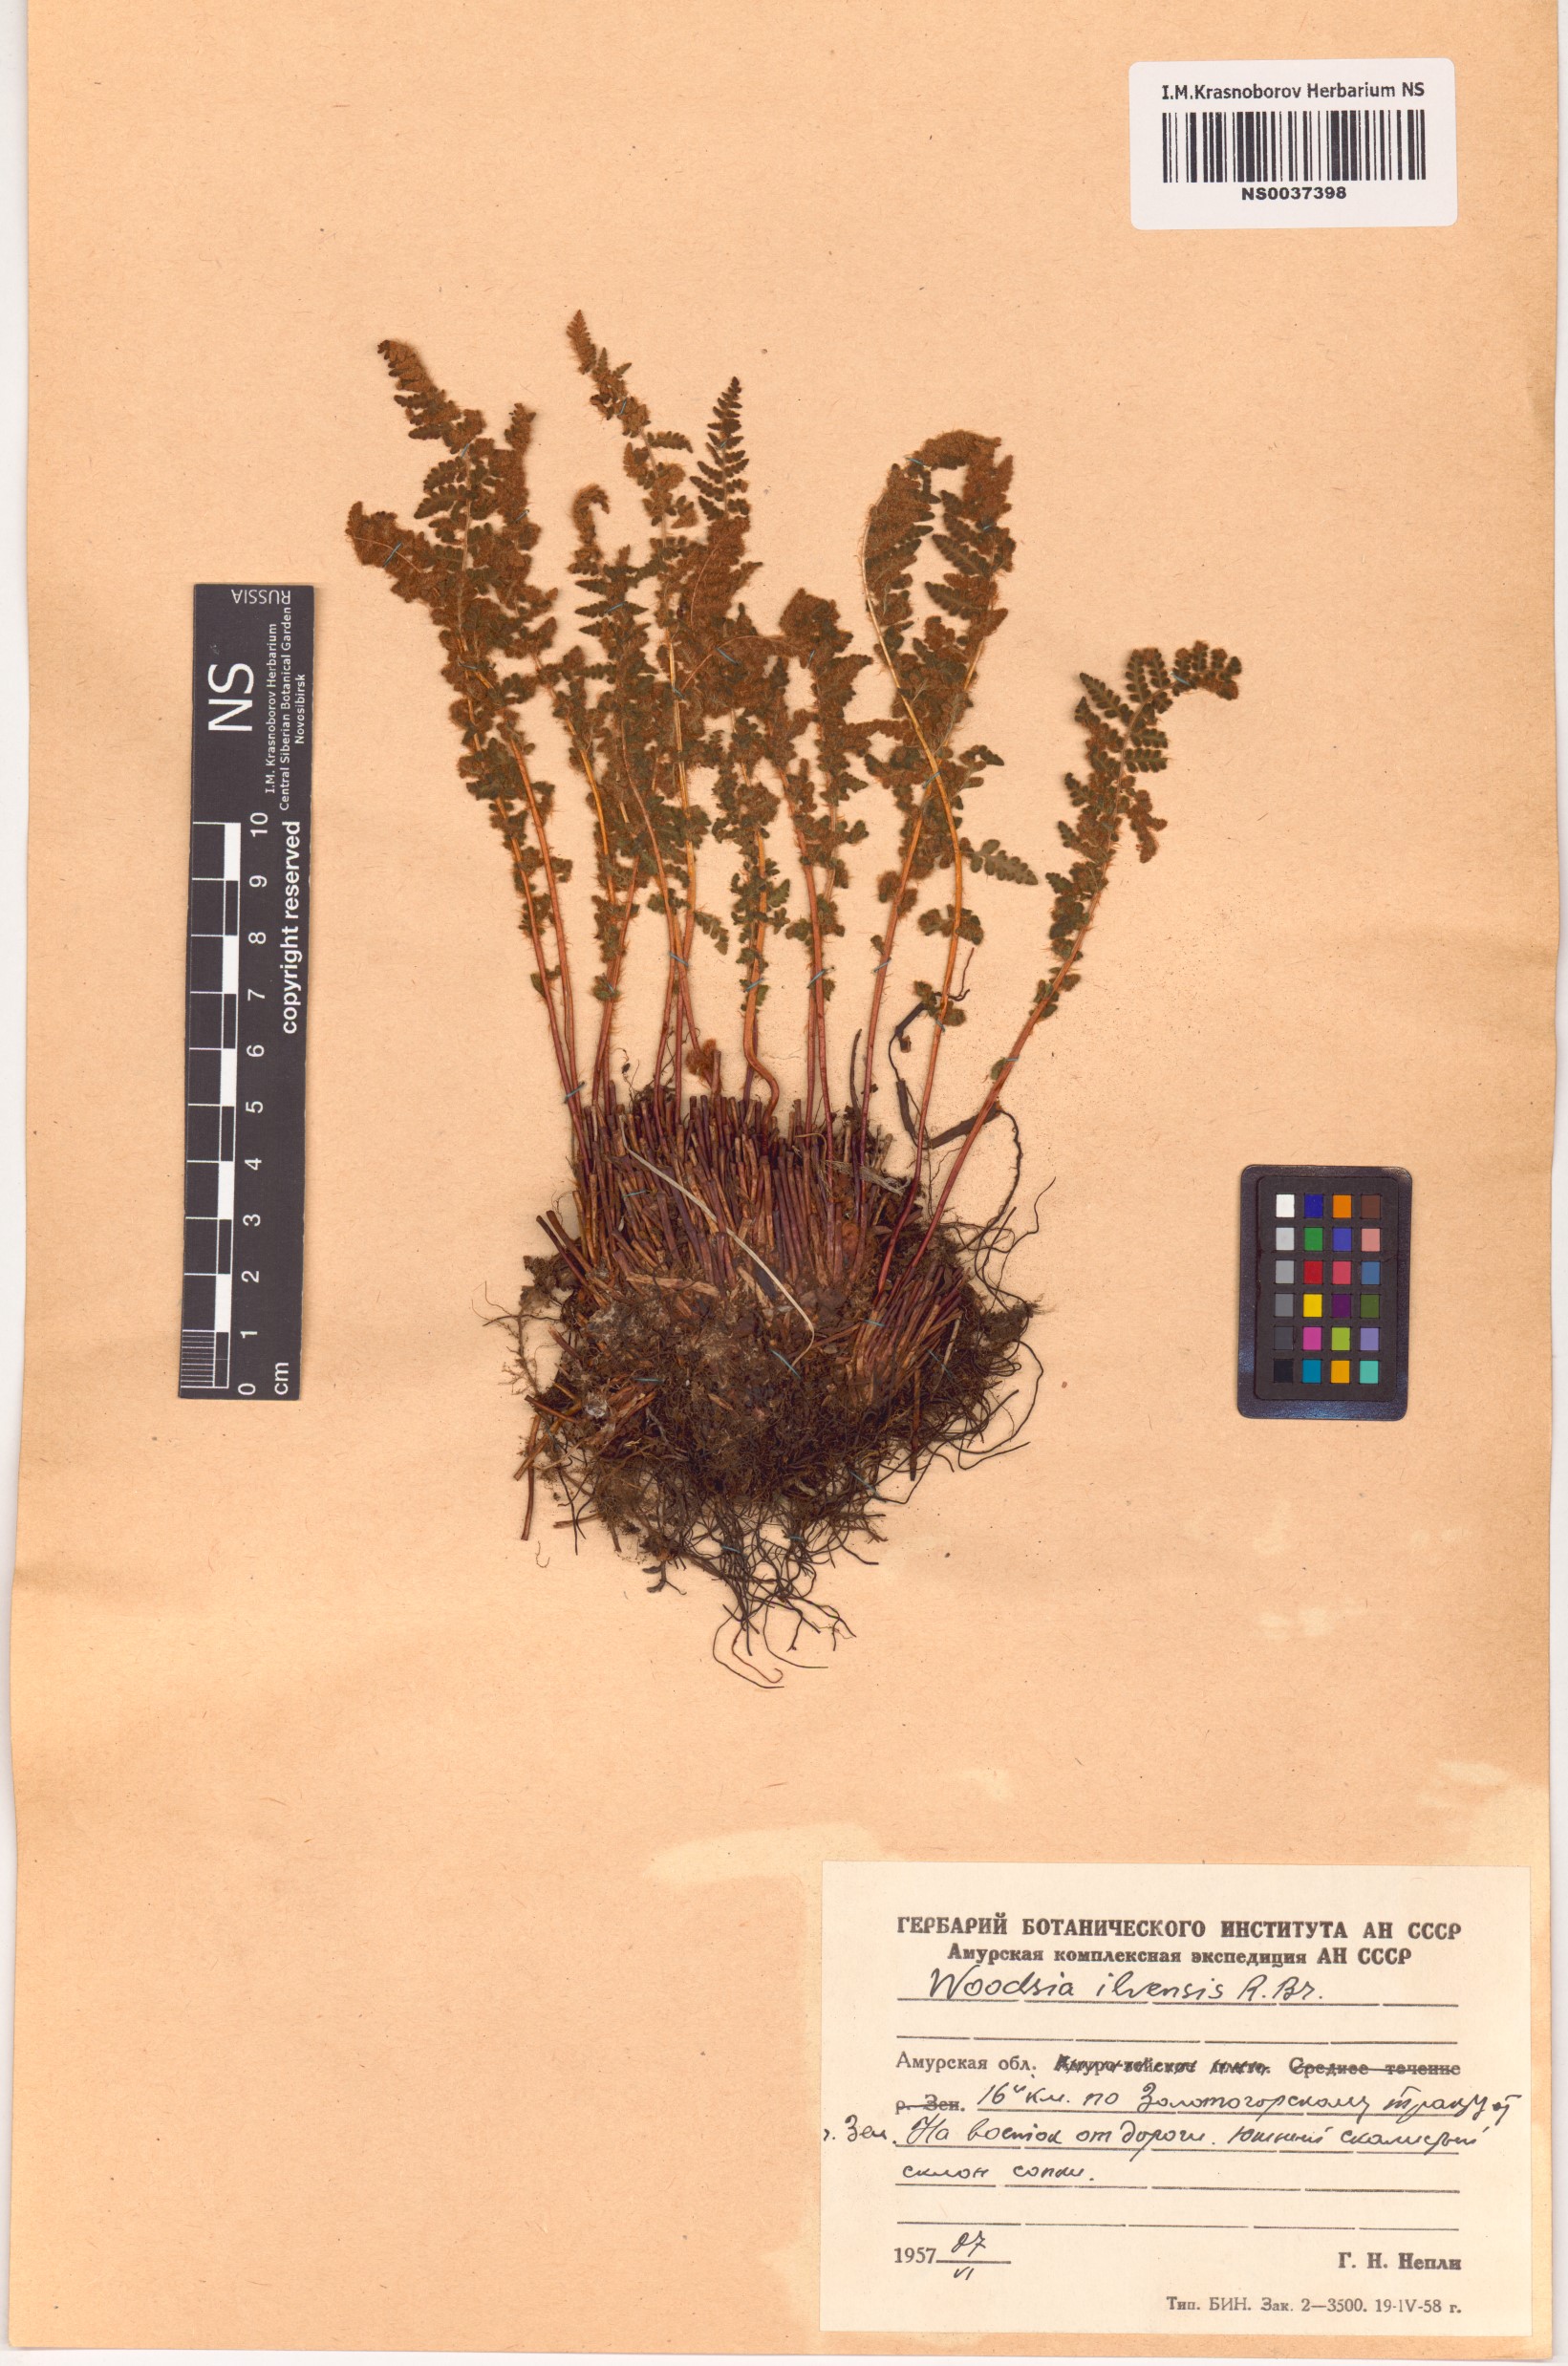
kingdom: Plantae
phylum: Tracheophyta
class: Polypodiopsida
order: Polypodiales
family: Woodsiaceae
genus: Woodsia
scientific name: Woodsia ilvensis
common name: Fragrant woodsia
